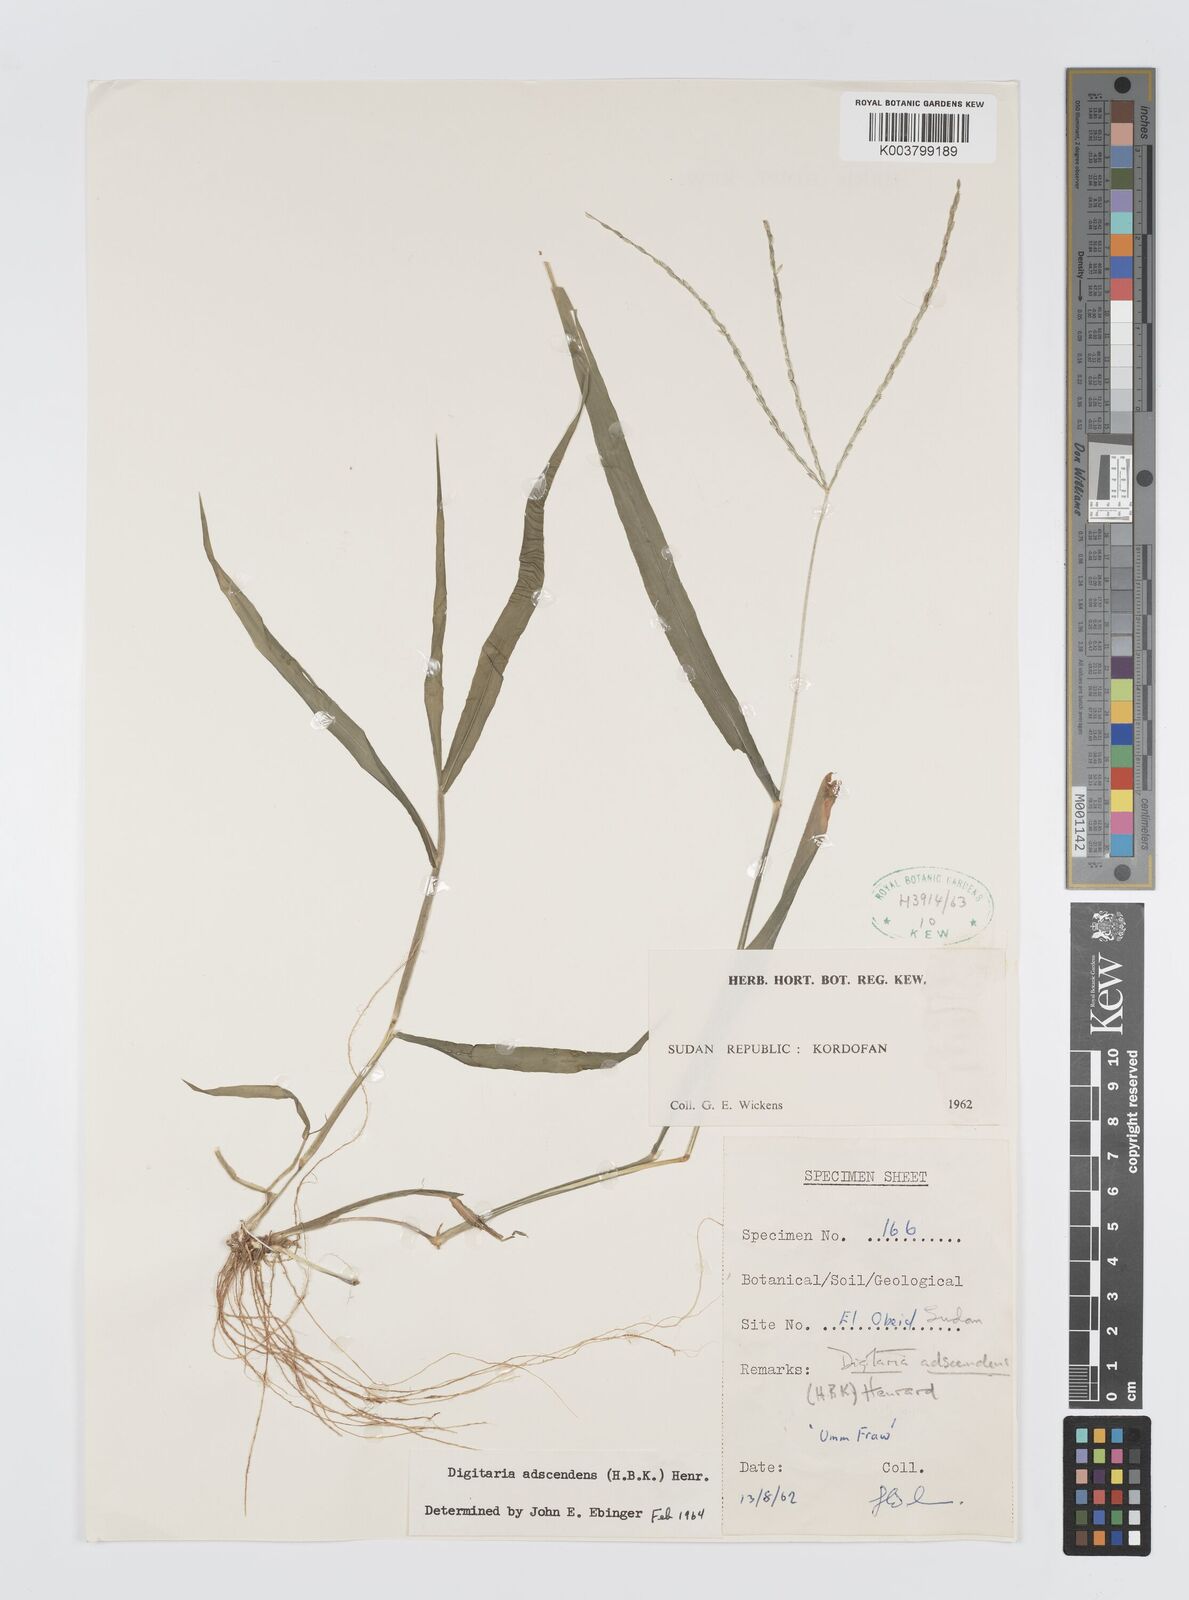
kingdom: Plantae
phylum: Tracheophyta
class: Liliopsida
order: Poales
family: Poaceae
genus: Digitaria
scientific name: Digitaria spec
